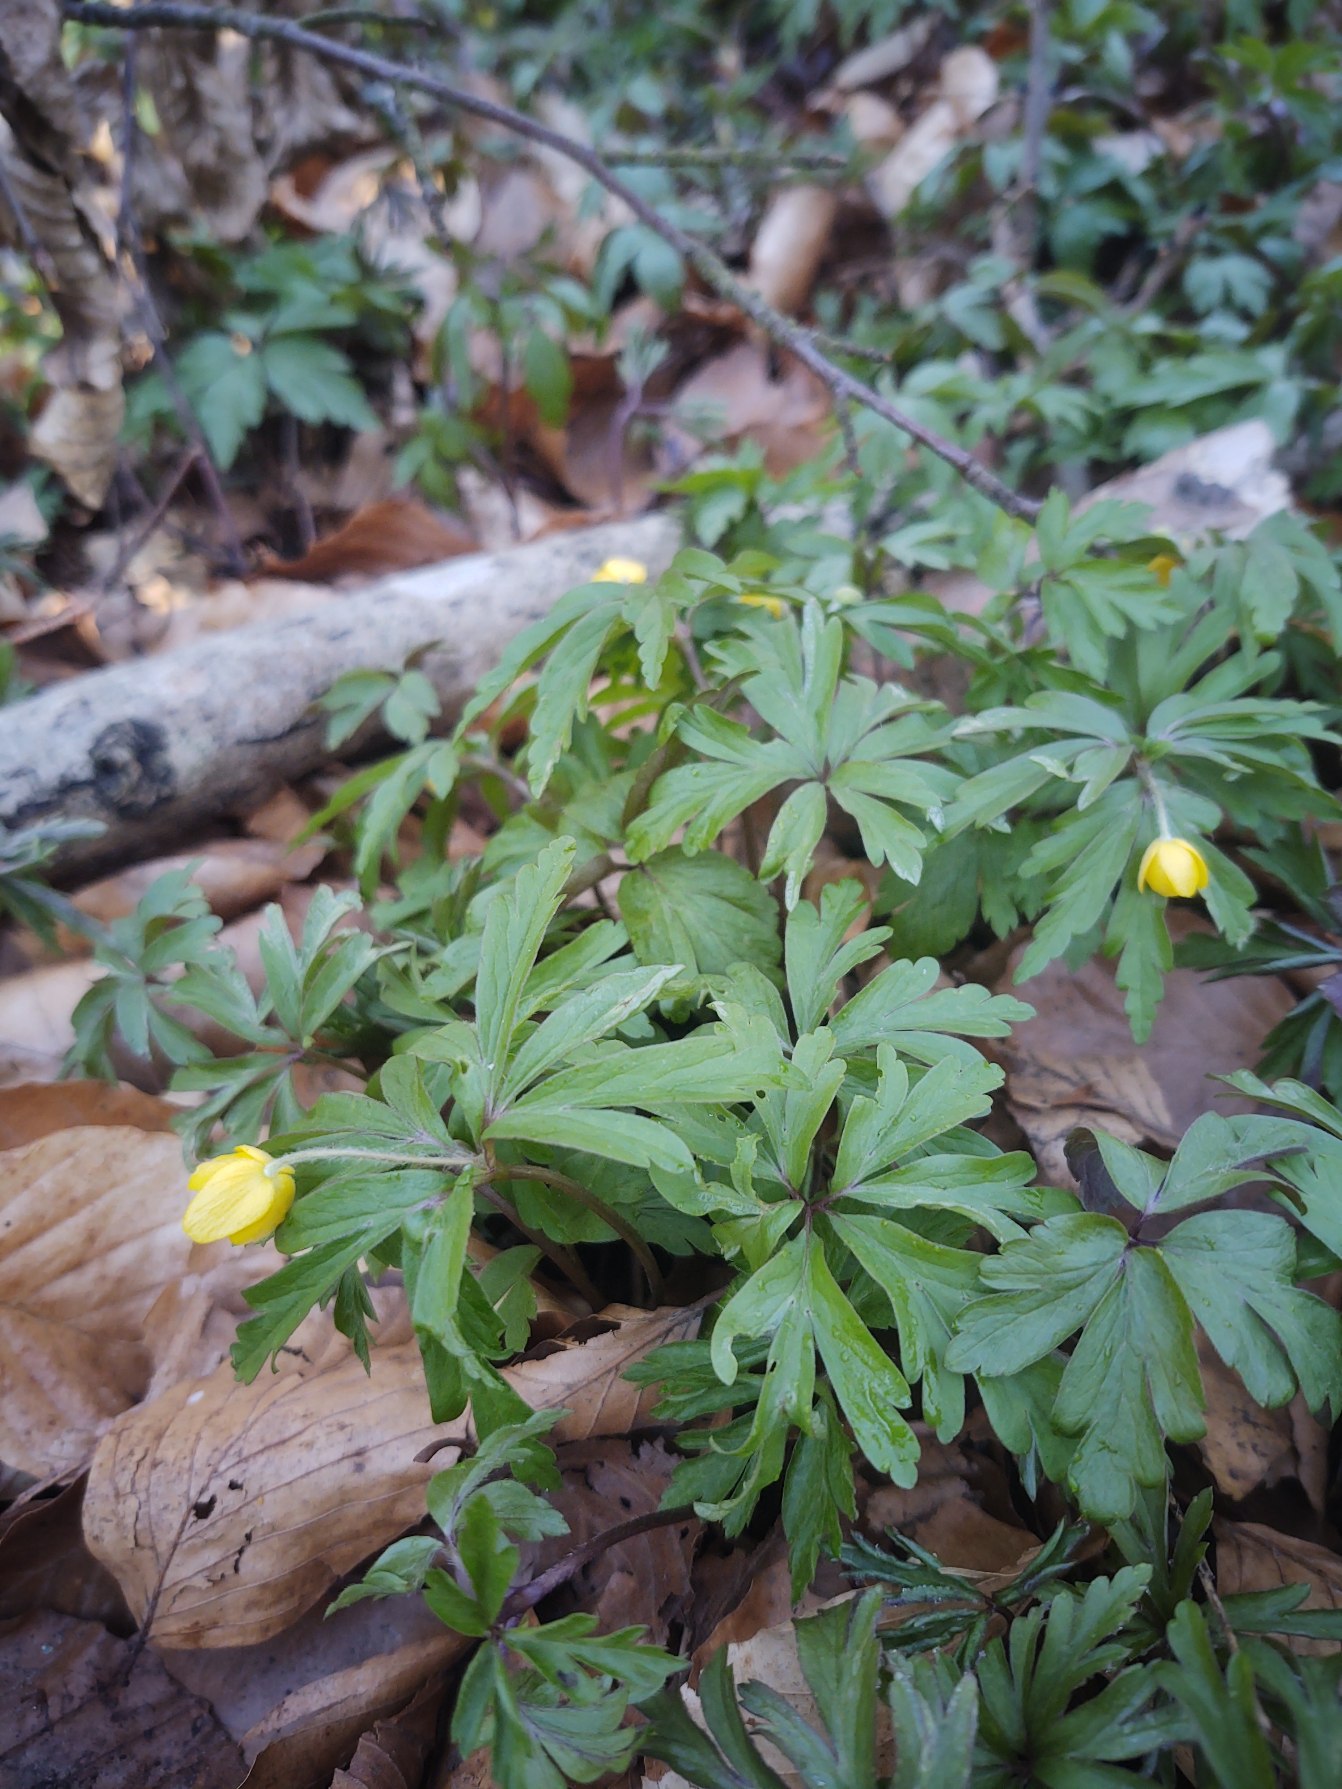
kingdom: Plantae
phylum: Tracheophyta
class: Magnoliopsida
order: Ranunculales
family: Ranunculaceae
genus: Anemone
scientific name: Anemone ranunculoides
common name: Gul anemone
